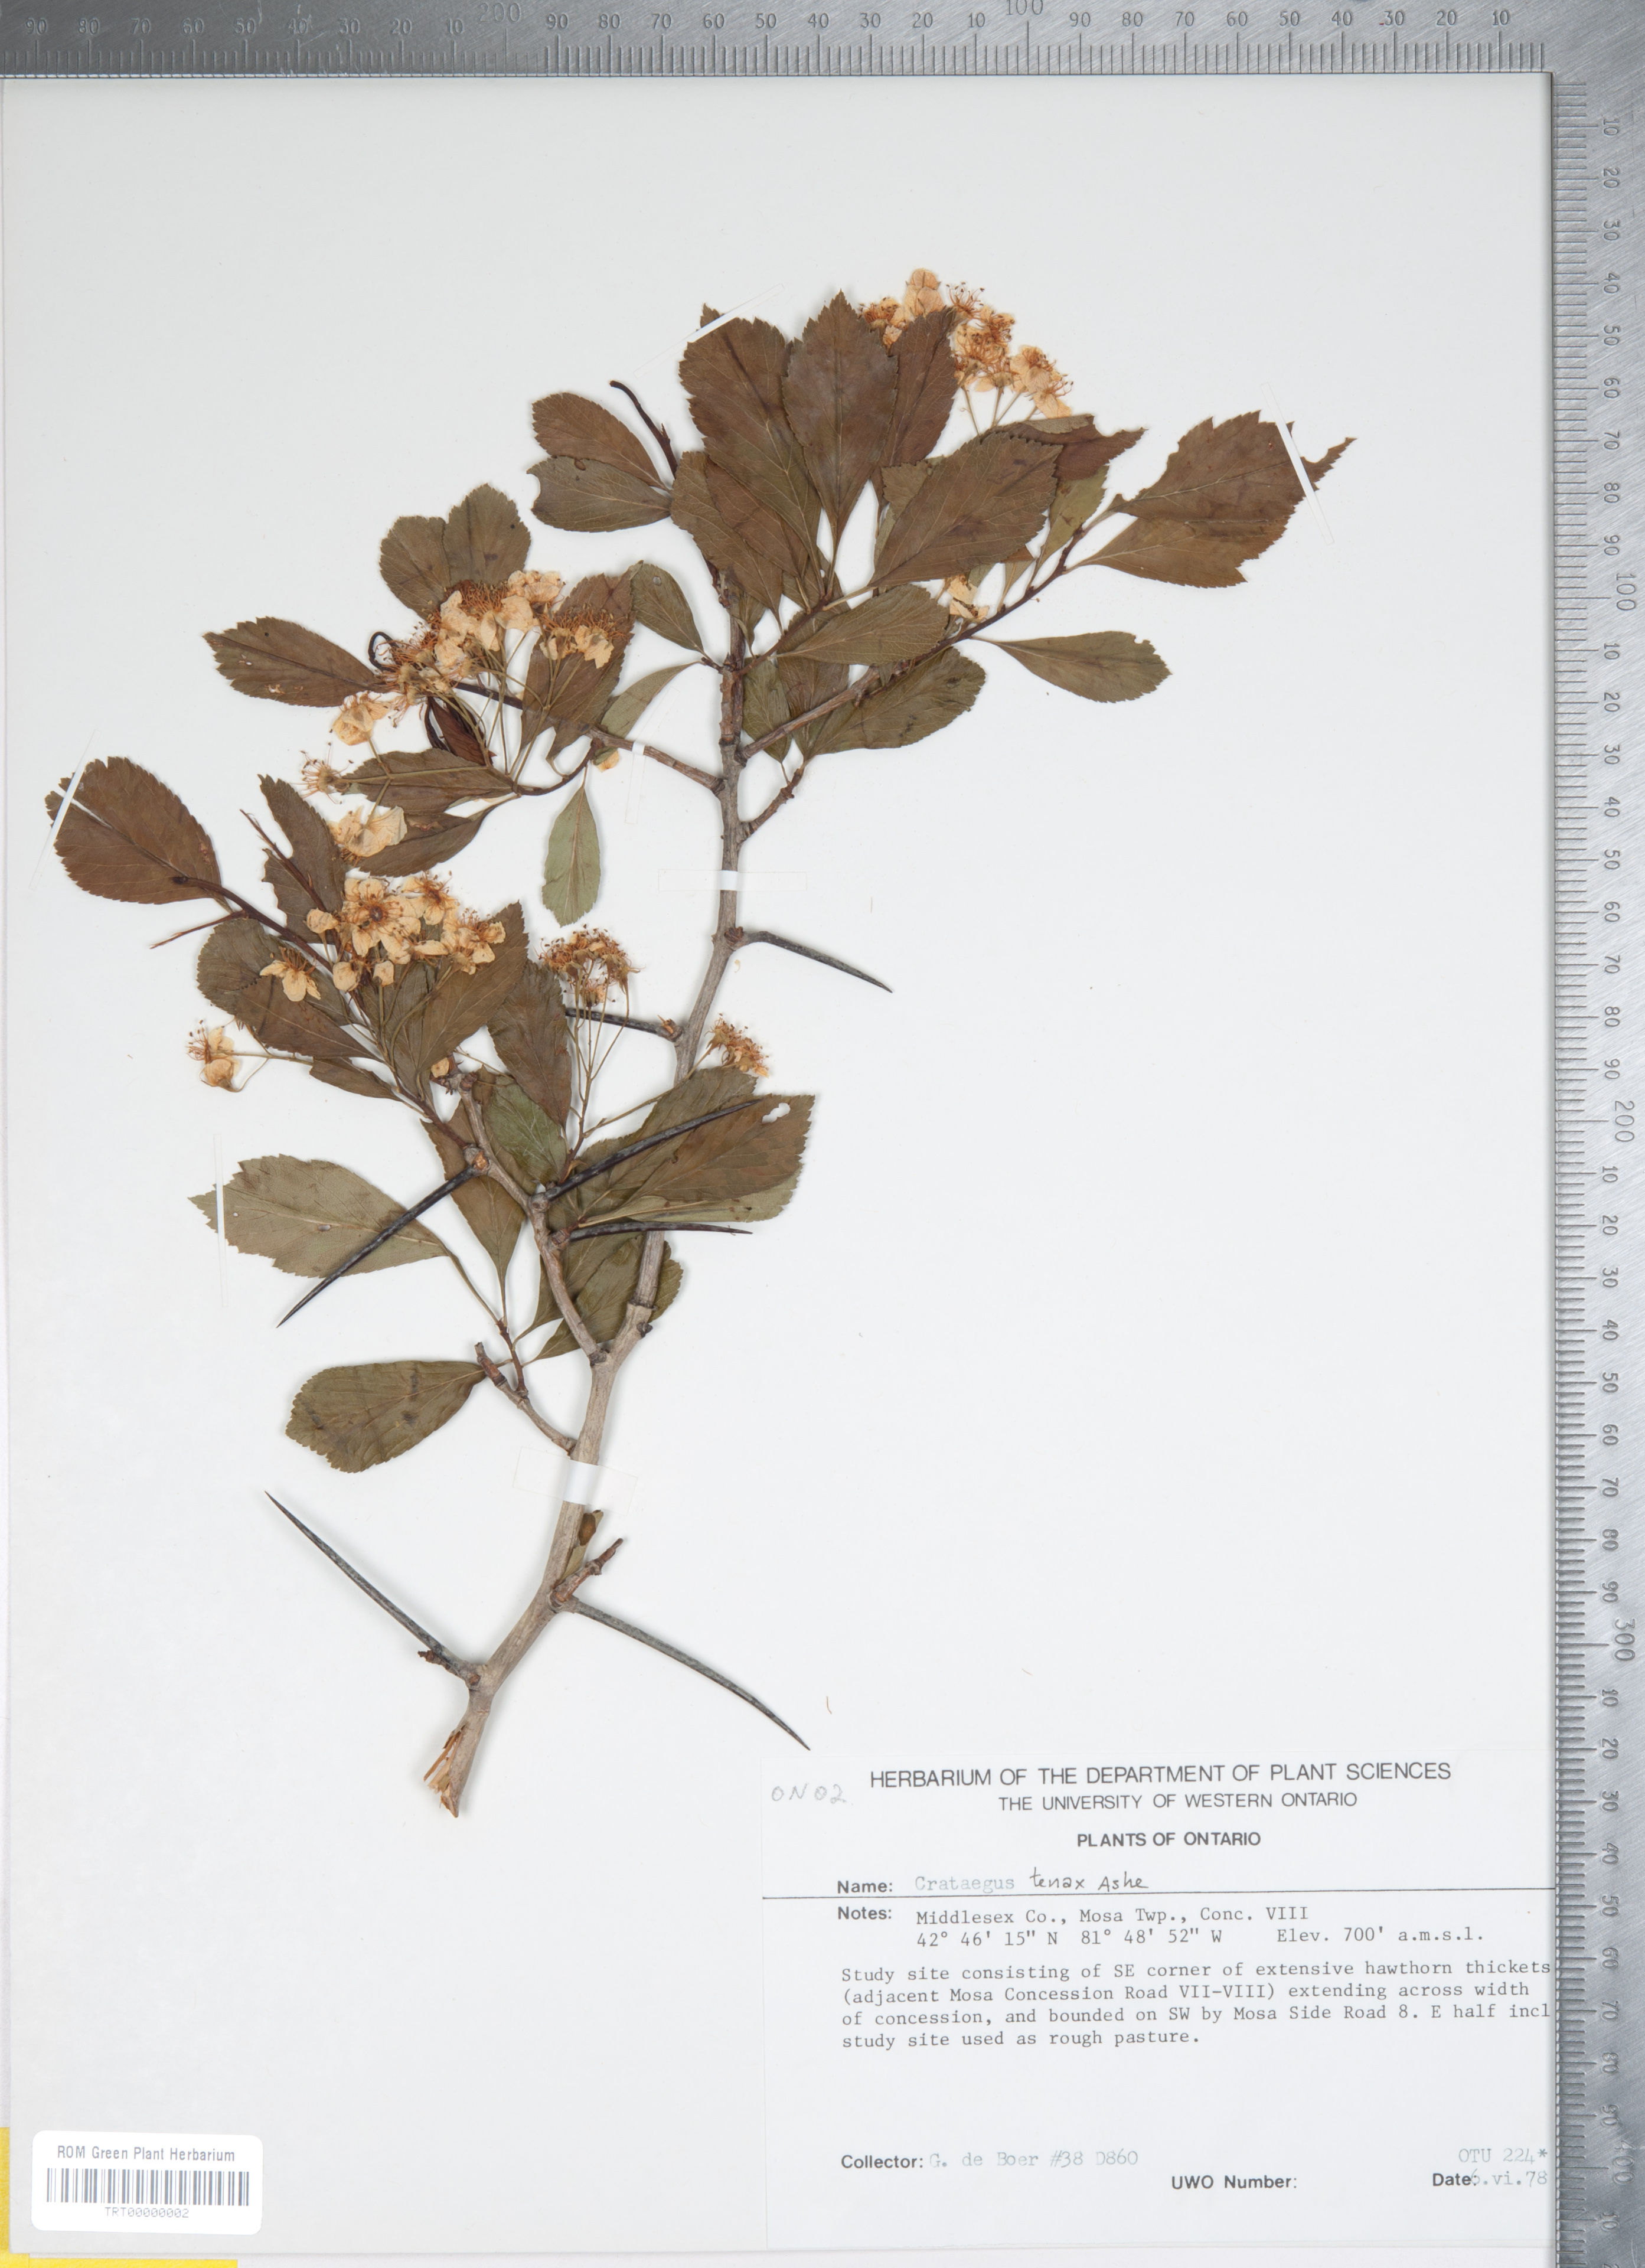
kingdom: Plantae
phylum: Tracheophyta
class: Magnoliopsida
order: Rosales
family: Rosaceae
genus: Crataegus
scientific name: Crataegus crus-galli
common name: Cockspurthorn
